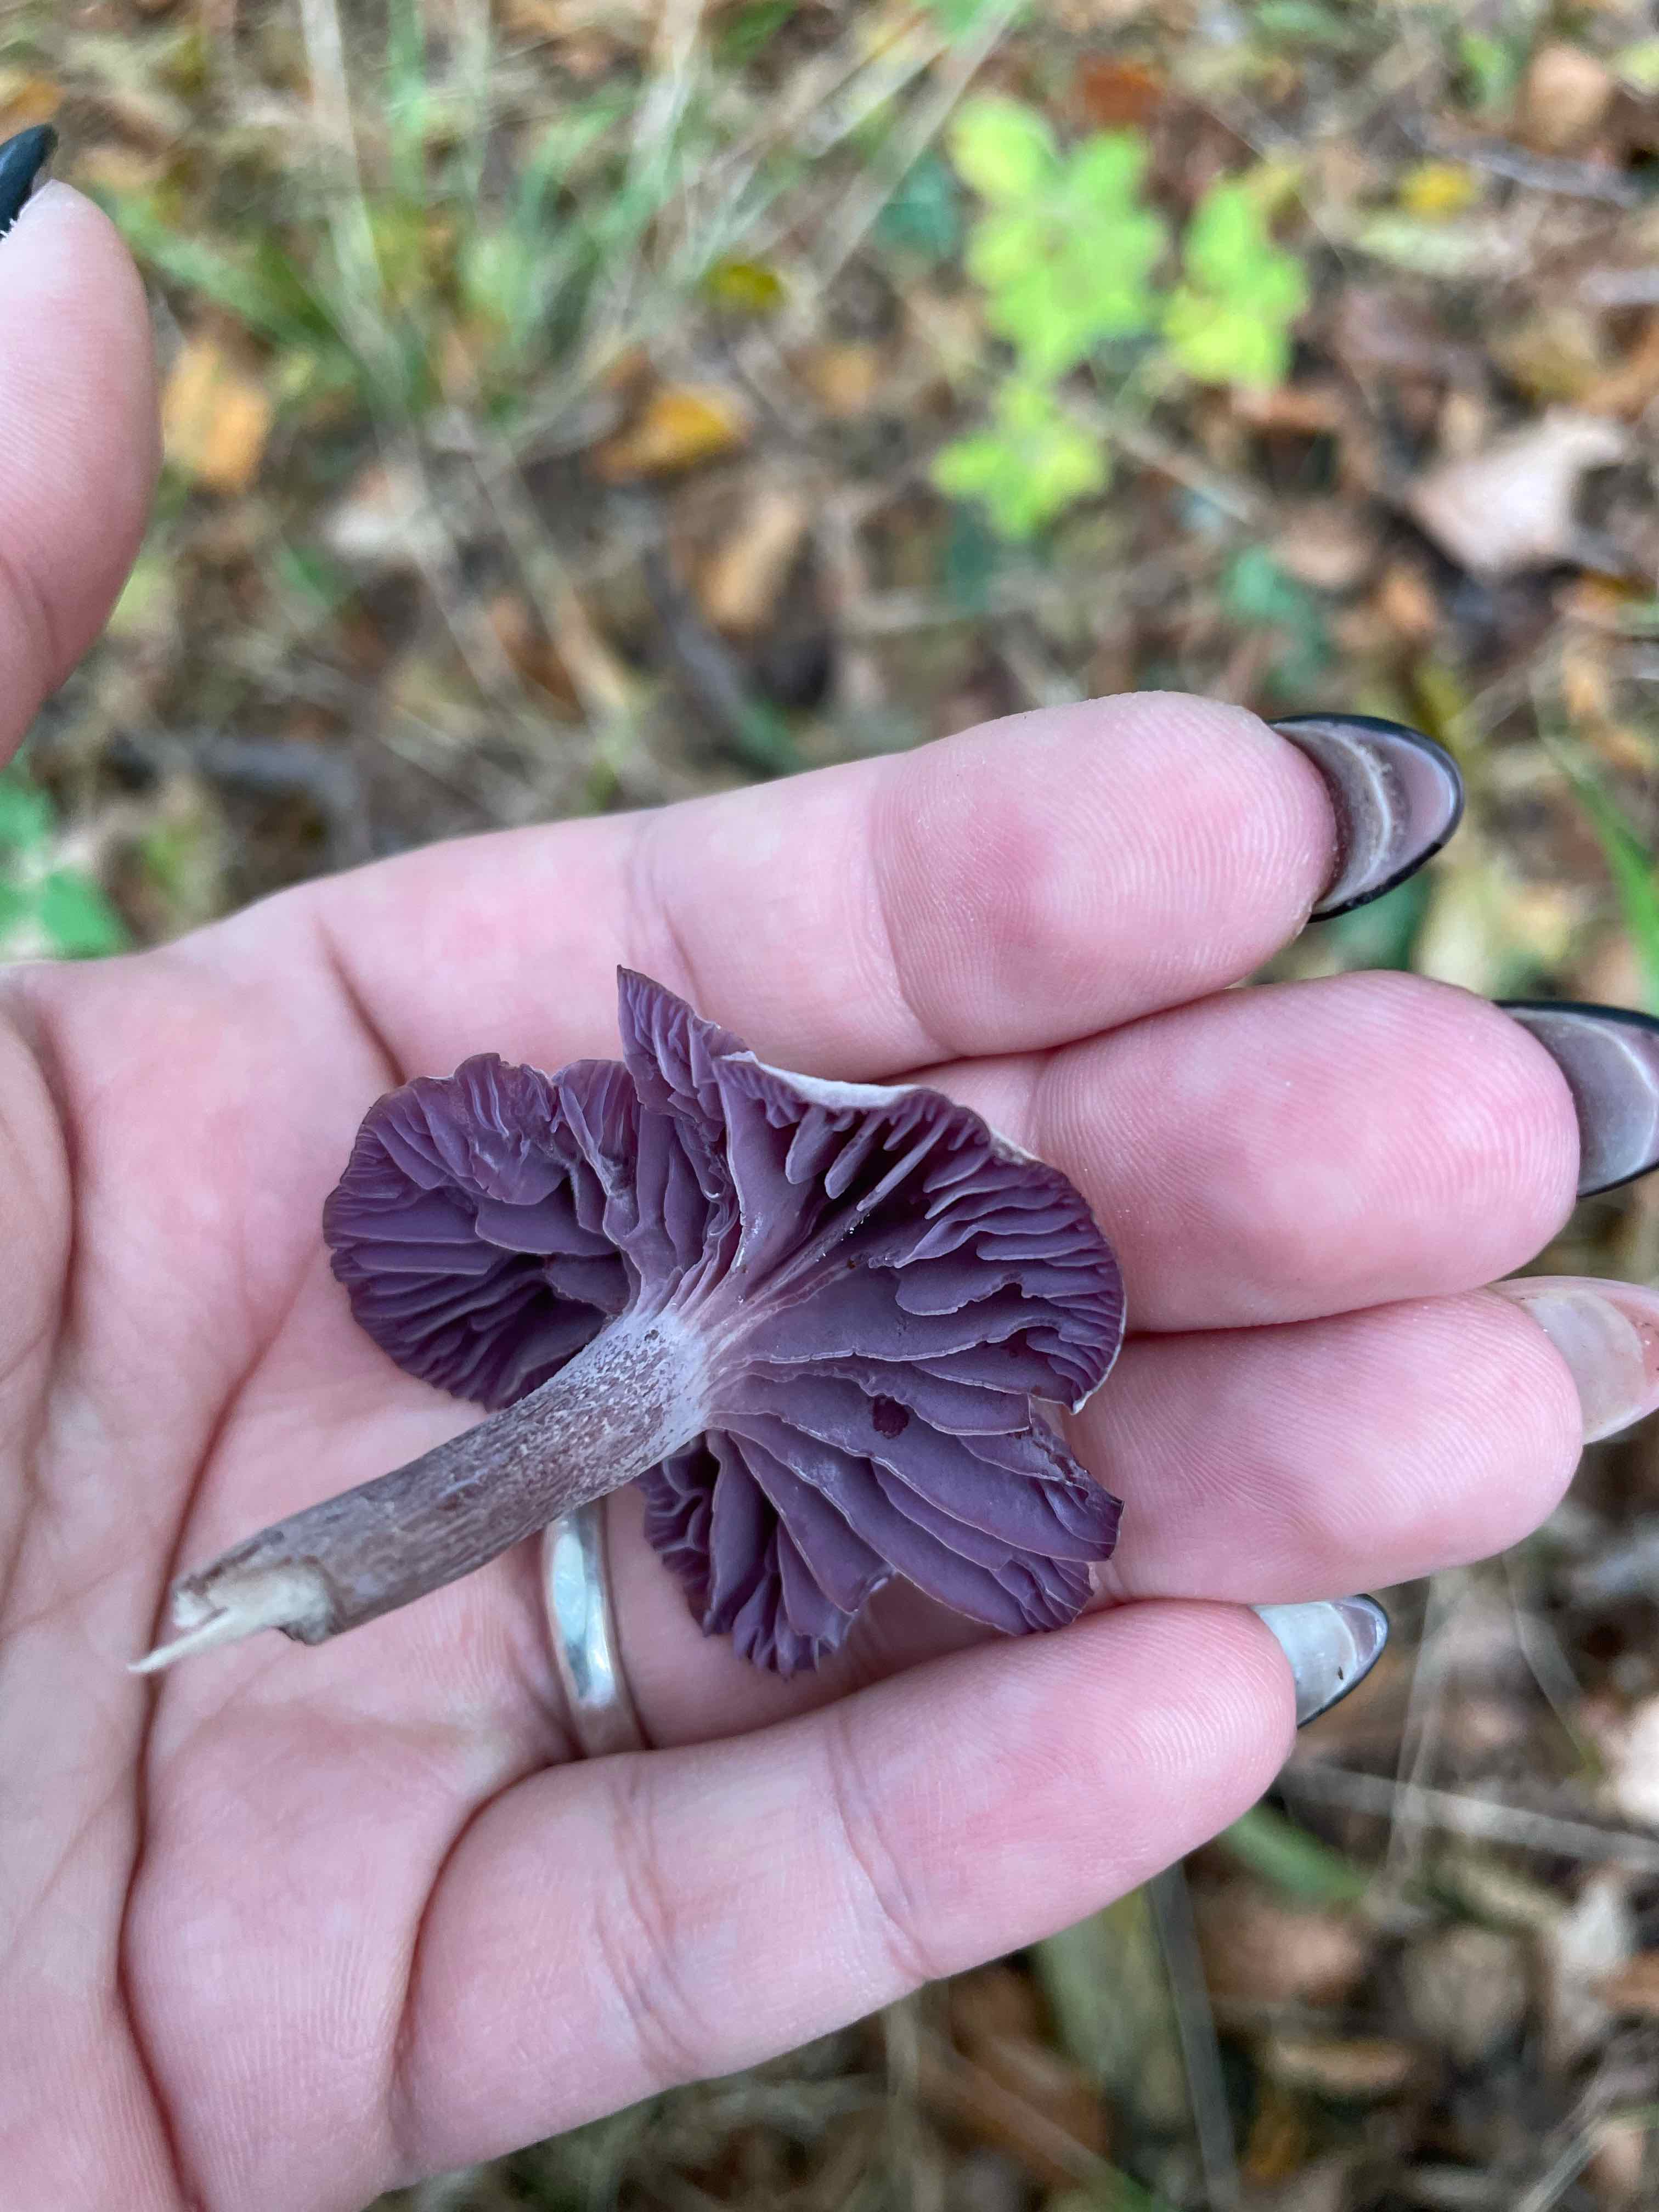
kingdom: Fungi
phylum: Basidiomycota
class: Agaricomycetes
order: Agaricales
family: Hydnangiaceae
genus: Laccaria
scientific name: Laccaria amethystina
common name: violet ametysthat
